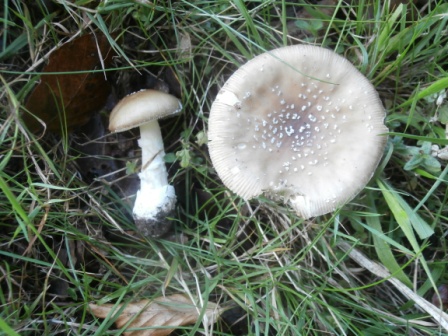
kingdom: Fungi
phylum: Basidiomycota
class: Agaricomycetes
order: Agaricales
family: Amanitaceae
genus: Amanita
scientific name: Amanita pantherina
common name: panter-fluesvamp
